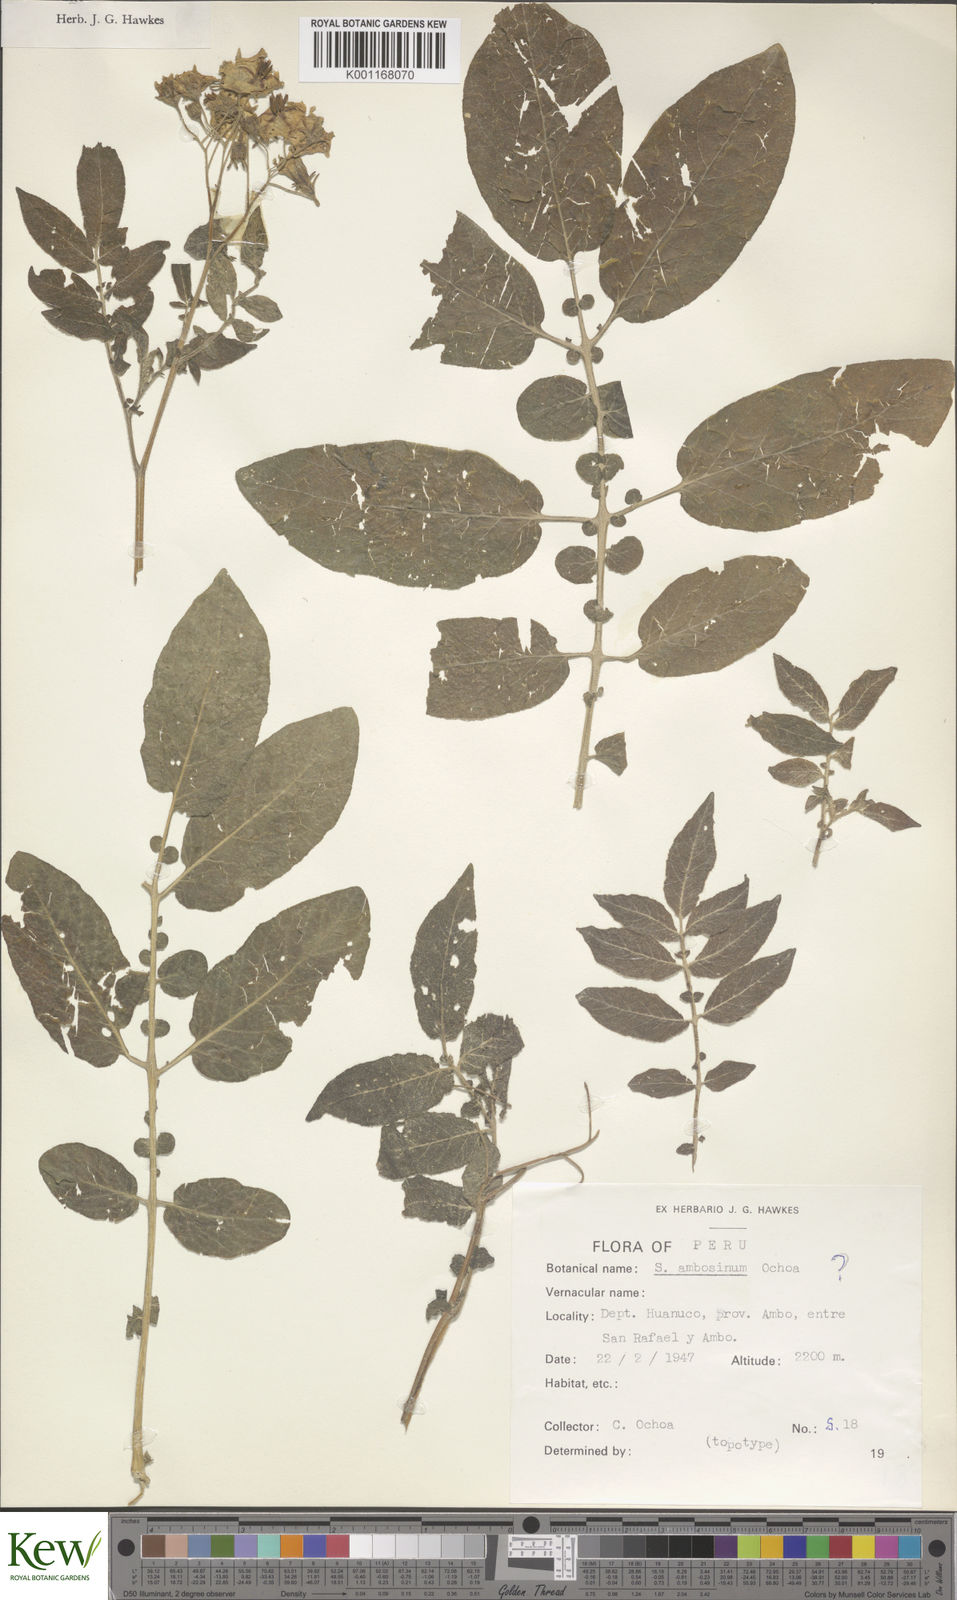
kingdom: Plantae
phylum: Tracheophyta
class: Magnoliopsida
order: Solanales
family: Solanaceae
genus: Solanum
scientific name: Solanum candolleanum
